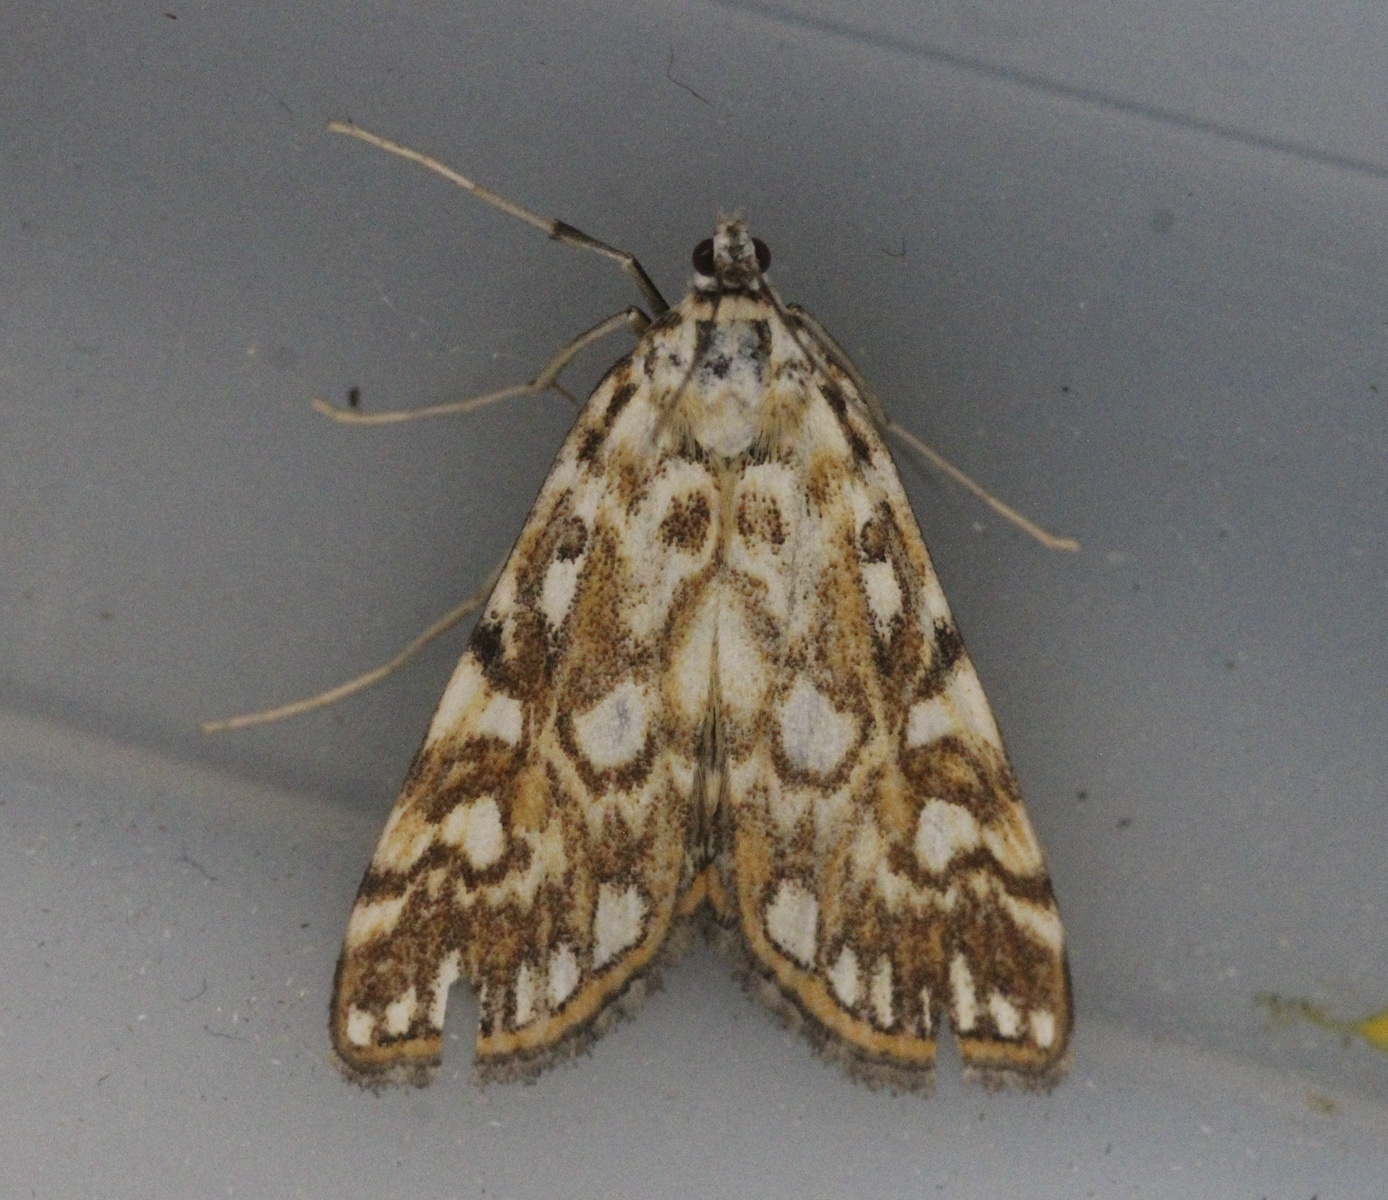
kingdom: Animalia
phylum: Arthropoda
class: Insecta
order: Lepidoptera
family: Crambidae
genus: Elophila
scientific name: Elophila nymphaeata
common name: Brown china-mark
